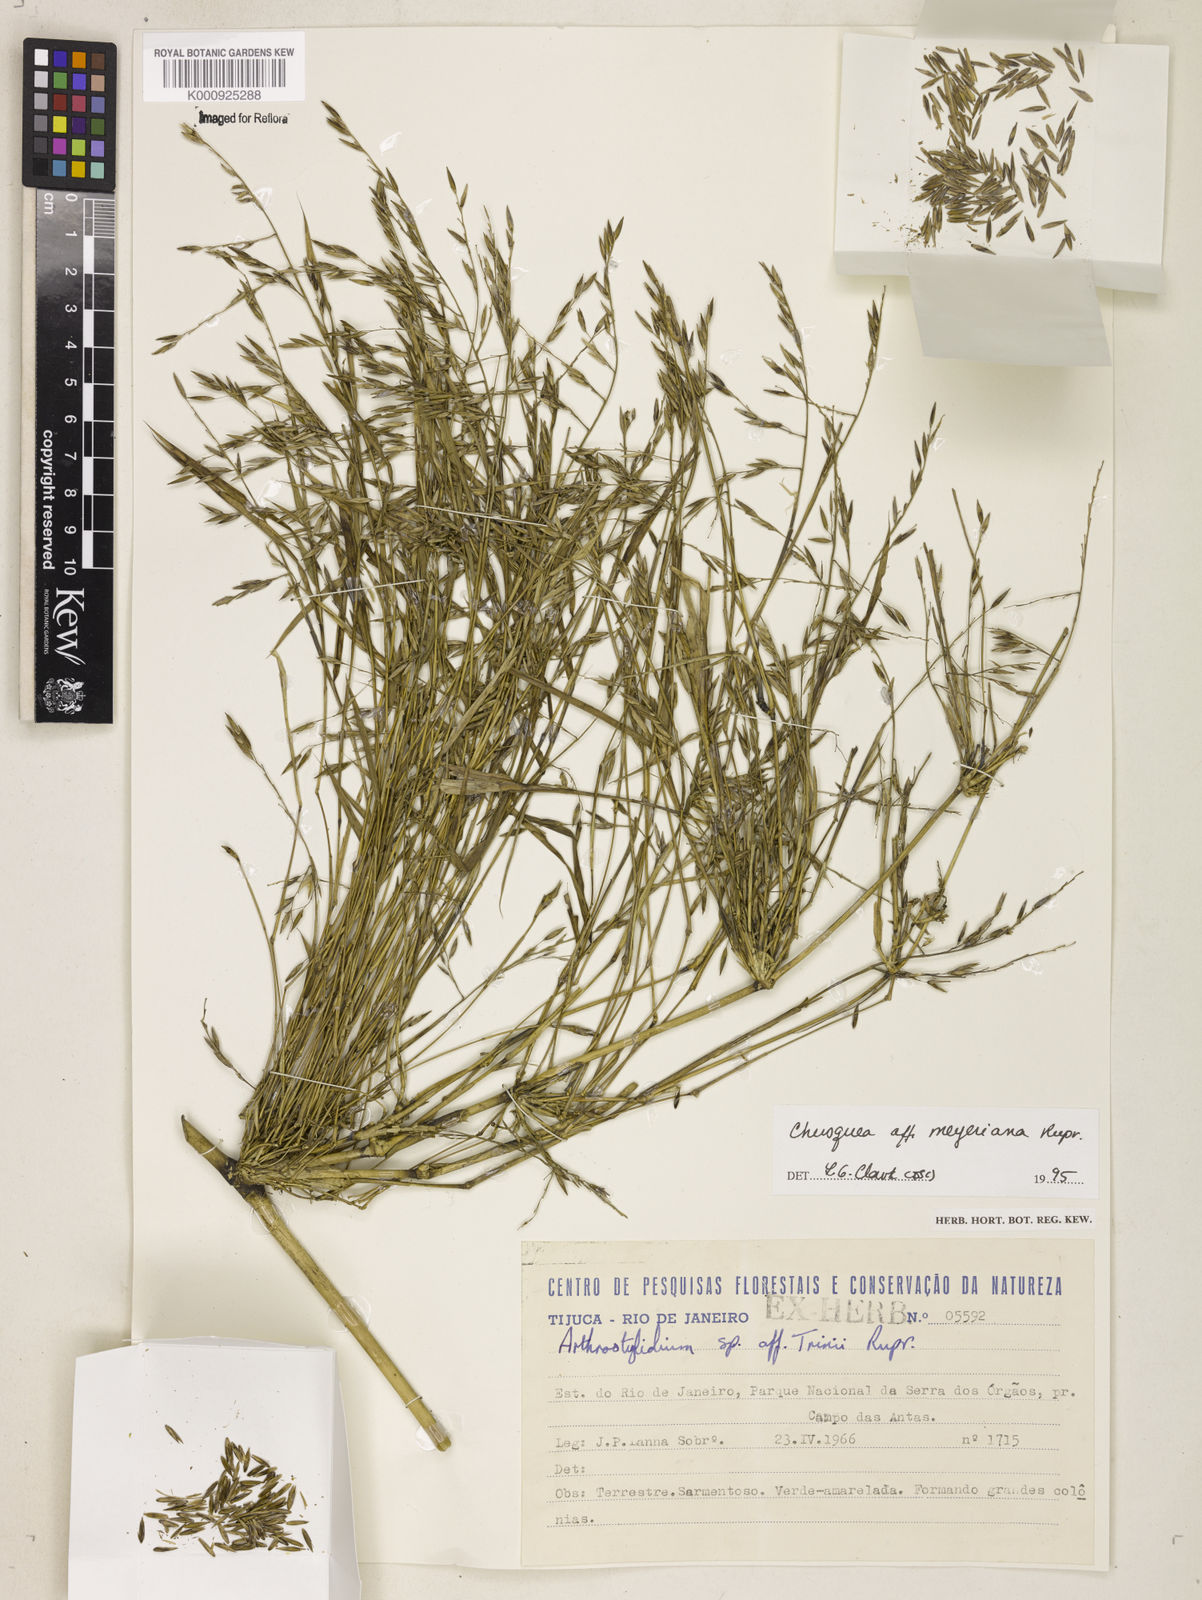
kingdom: Plantae
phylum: Tracheophyta
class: Liliopsida
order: Poales
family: Poaceae
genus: Chusquea
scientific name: Chusquea
